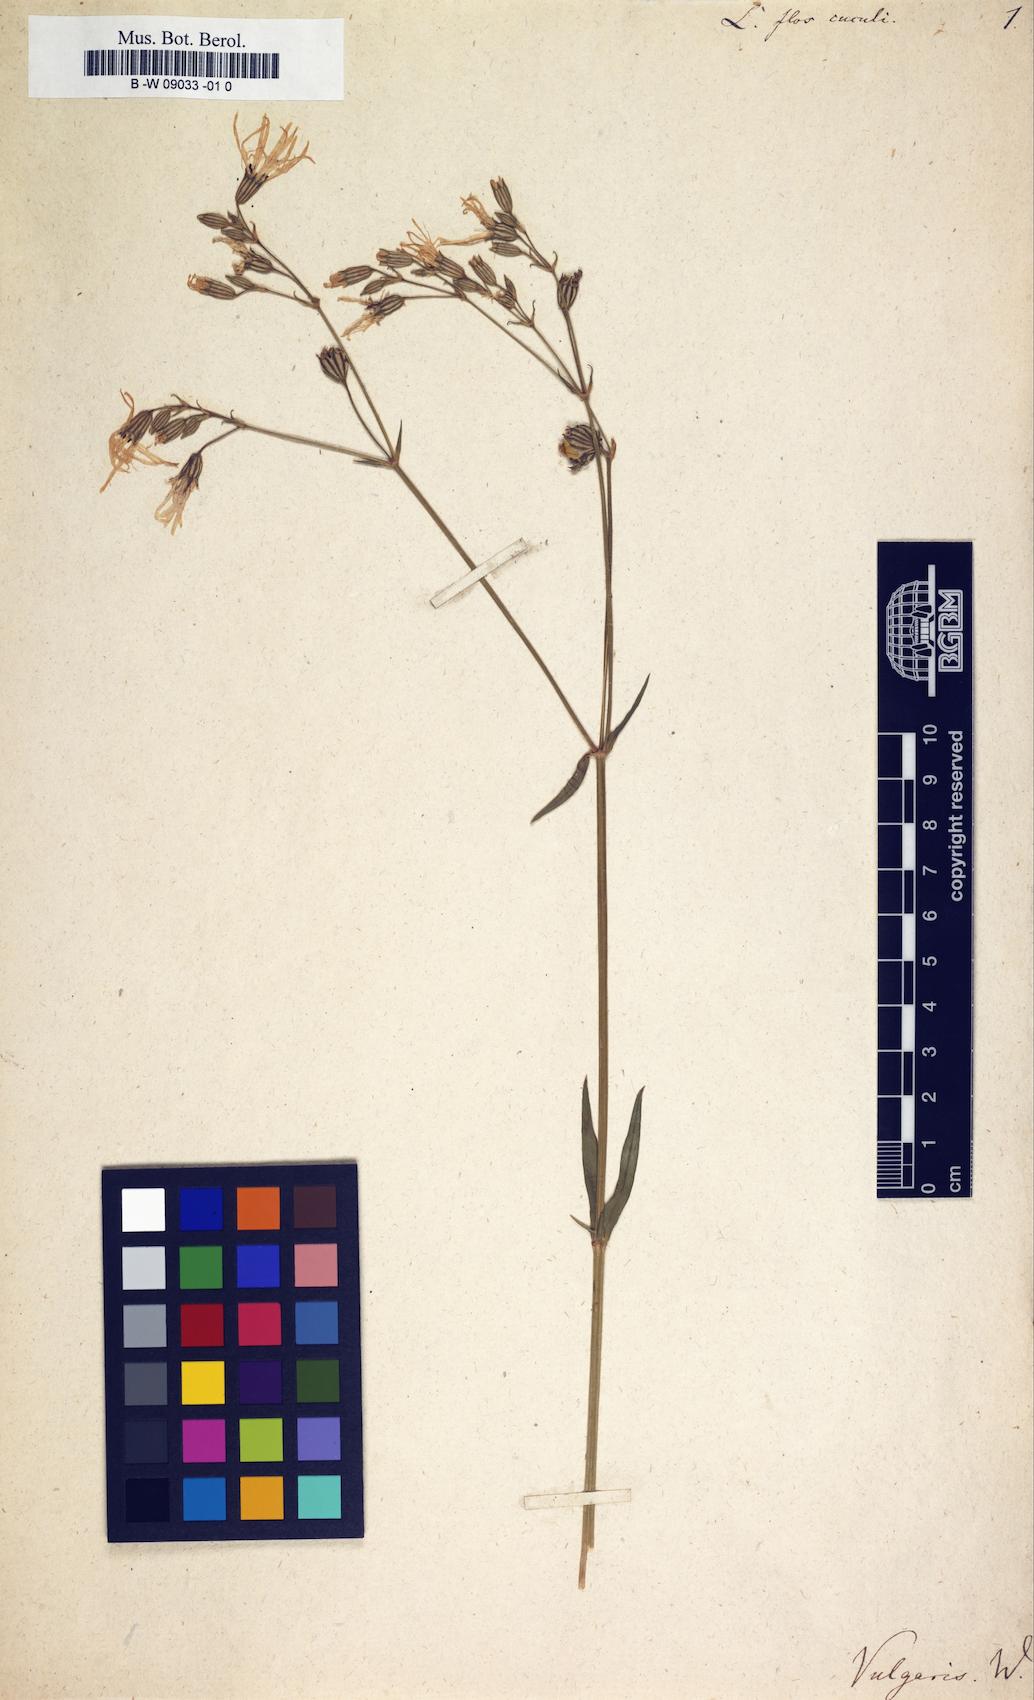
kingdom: Plantae
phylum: Tracheophyta
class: Magnoliopsida
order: Caryophyllales
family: Caryophyllaceae
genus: Silene
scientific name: Silene flos-cuculi
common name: Ragged-robin
